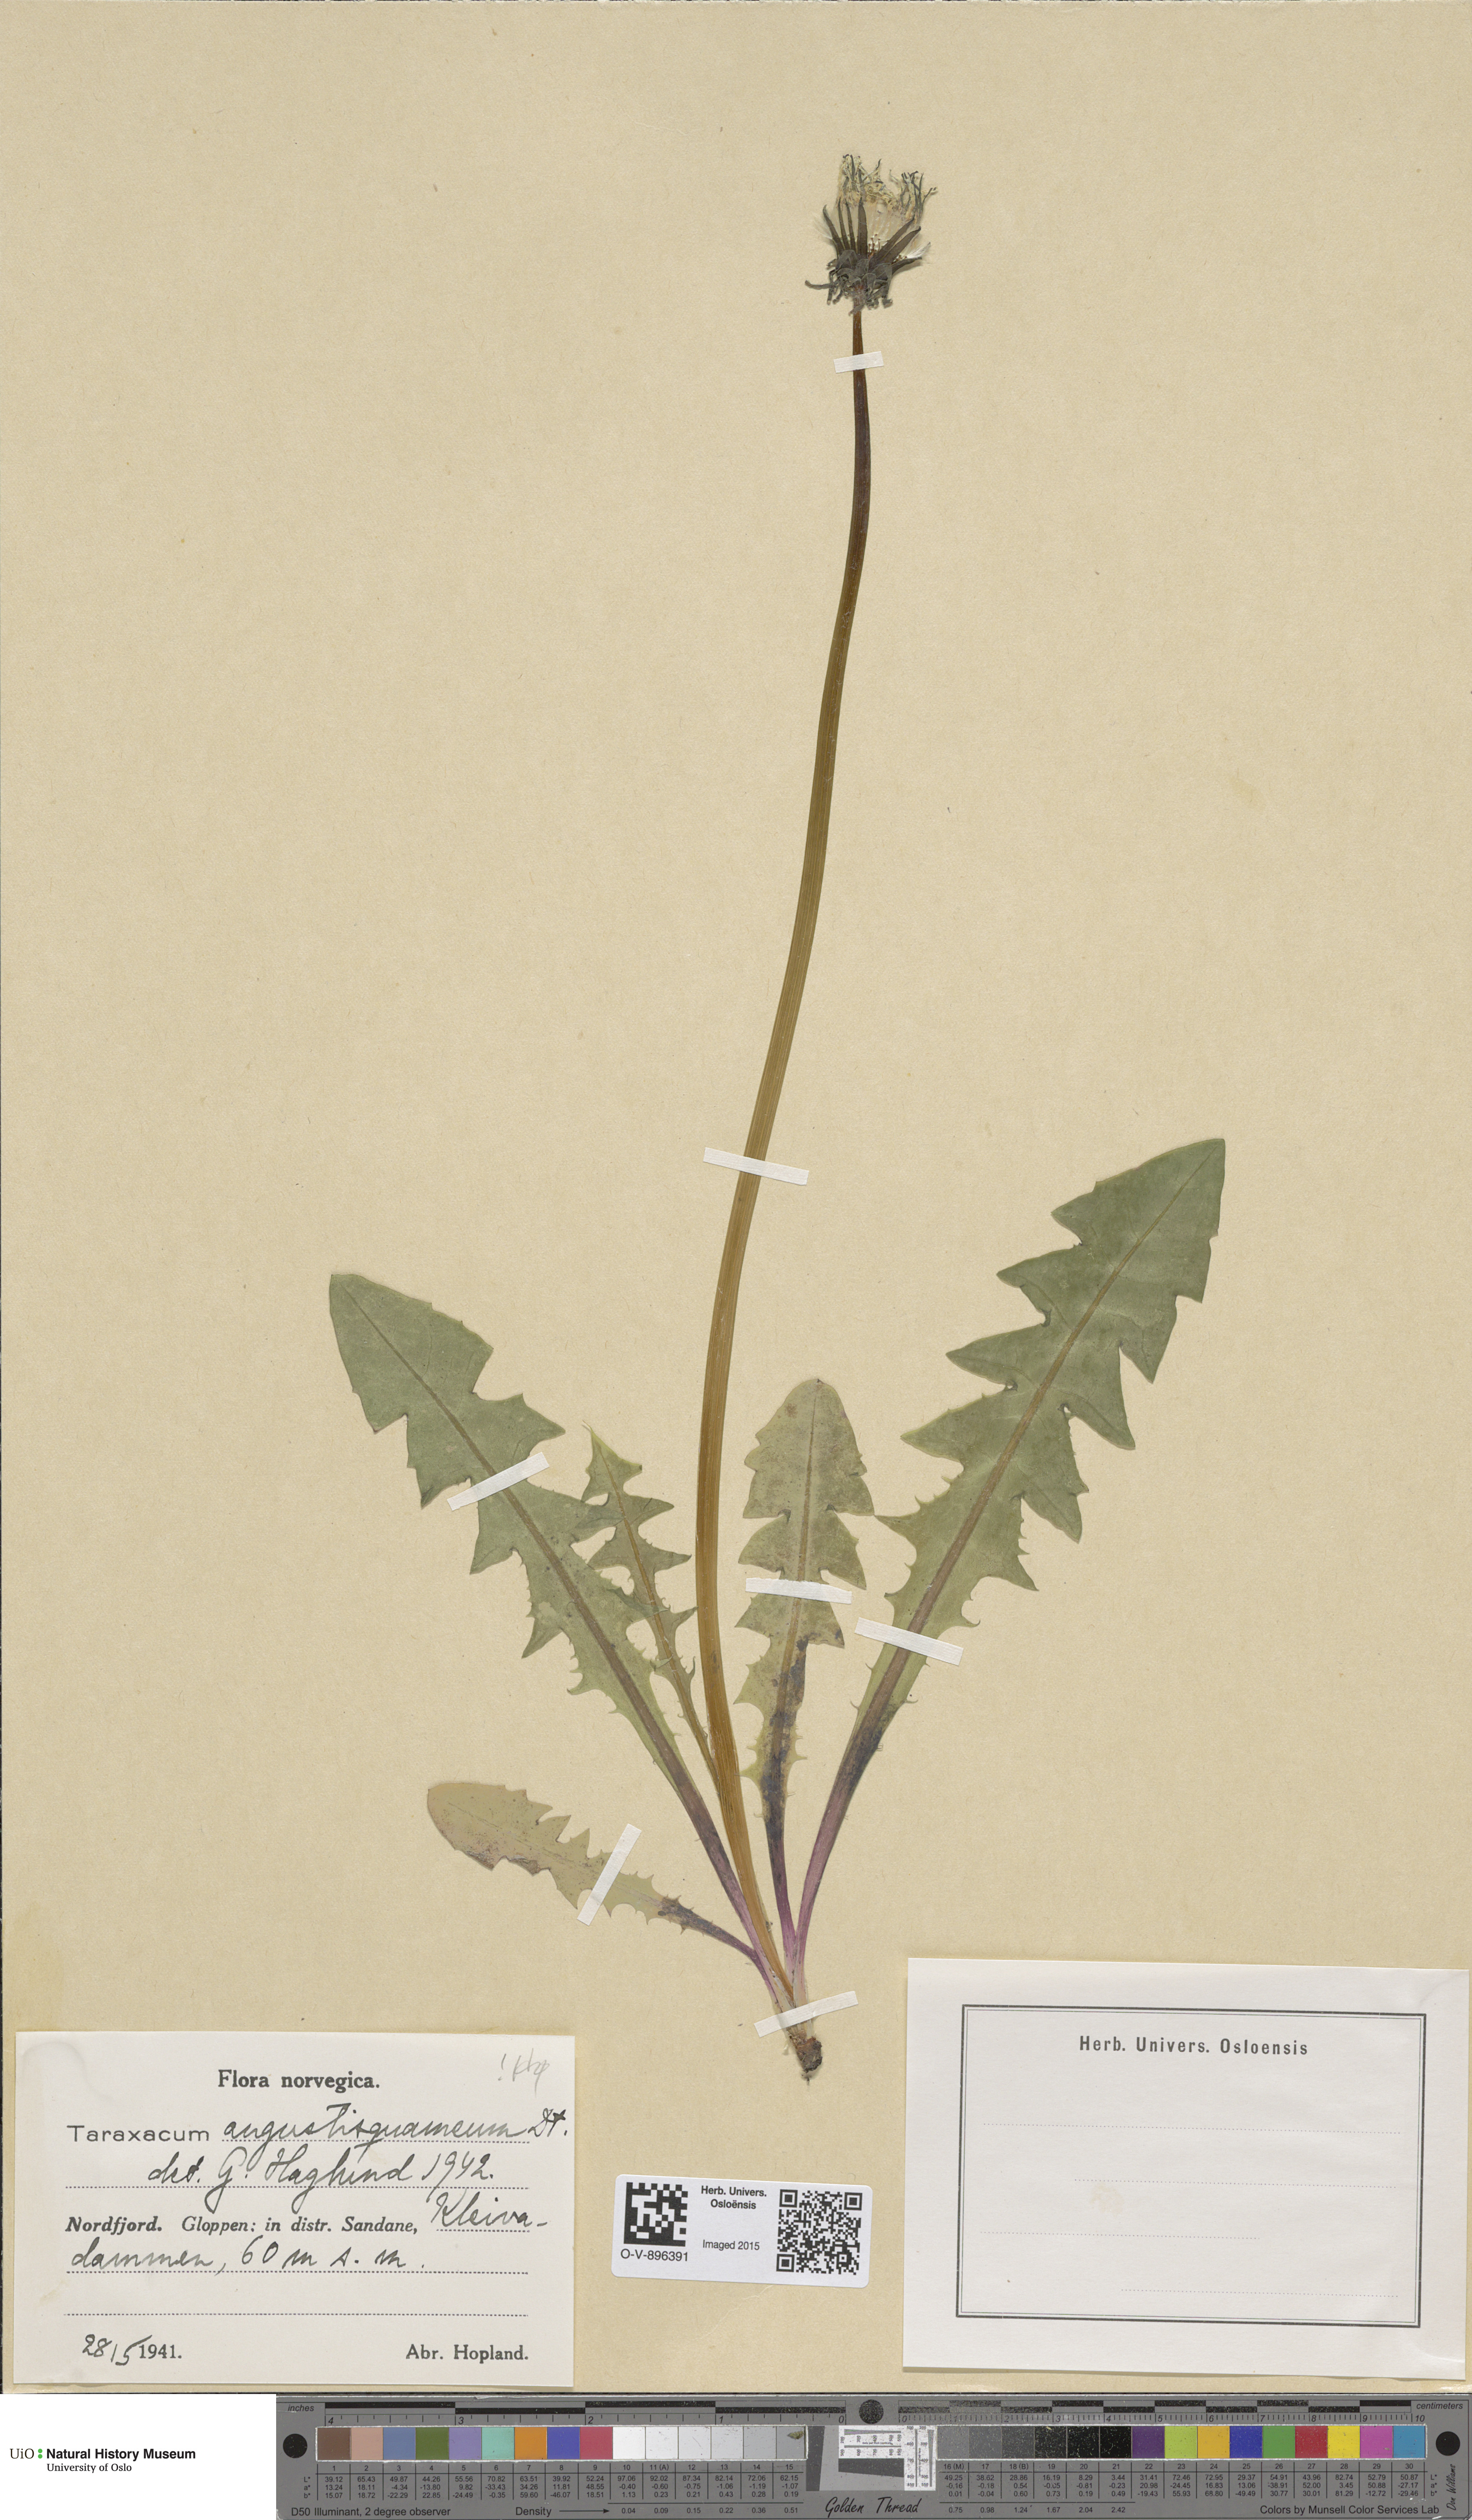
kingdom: Plantae
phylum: Tracheophyta
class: Magnoliopsida
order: Asterales
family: Asteraceae
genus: Taraxacum
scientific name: Taraxacum angustisquameum
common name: Multilobed dandelion
